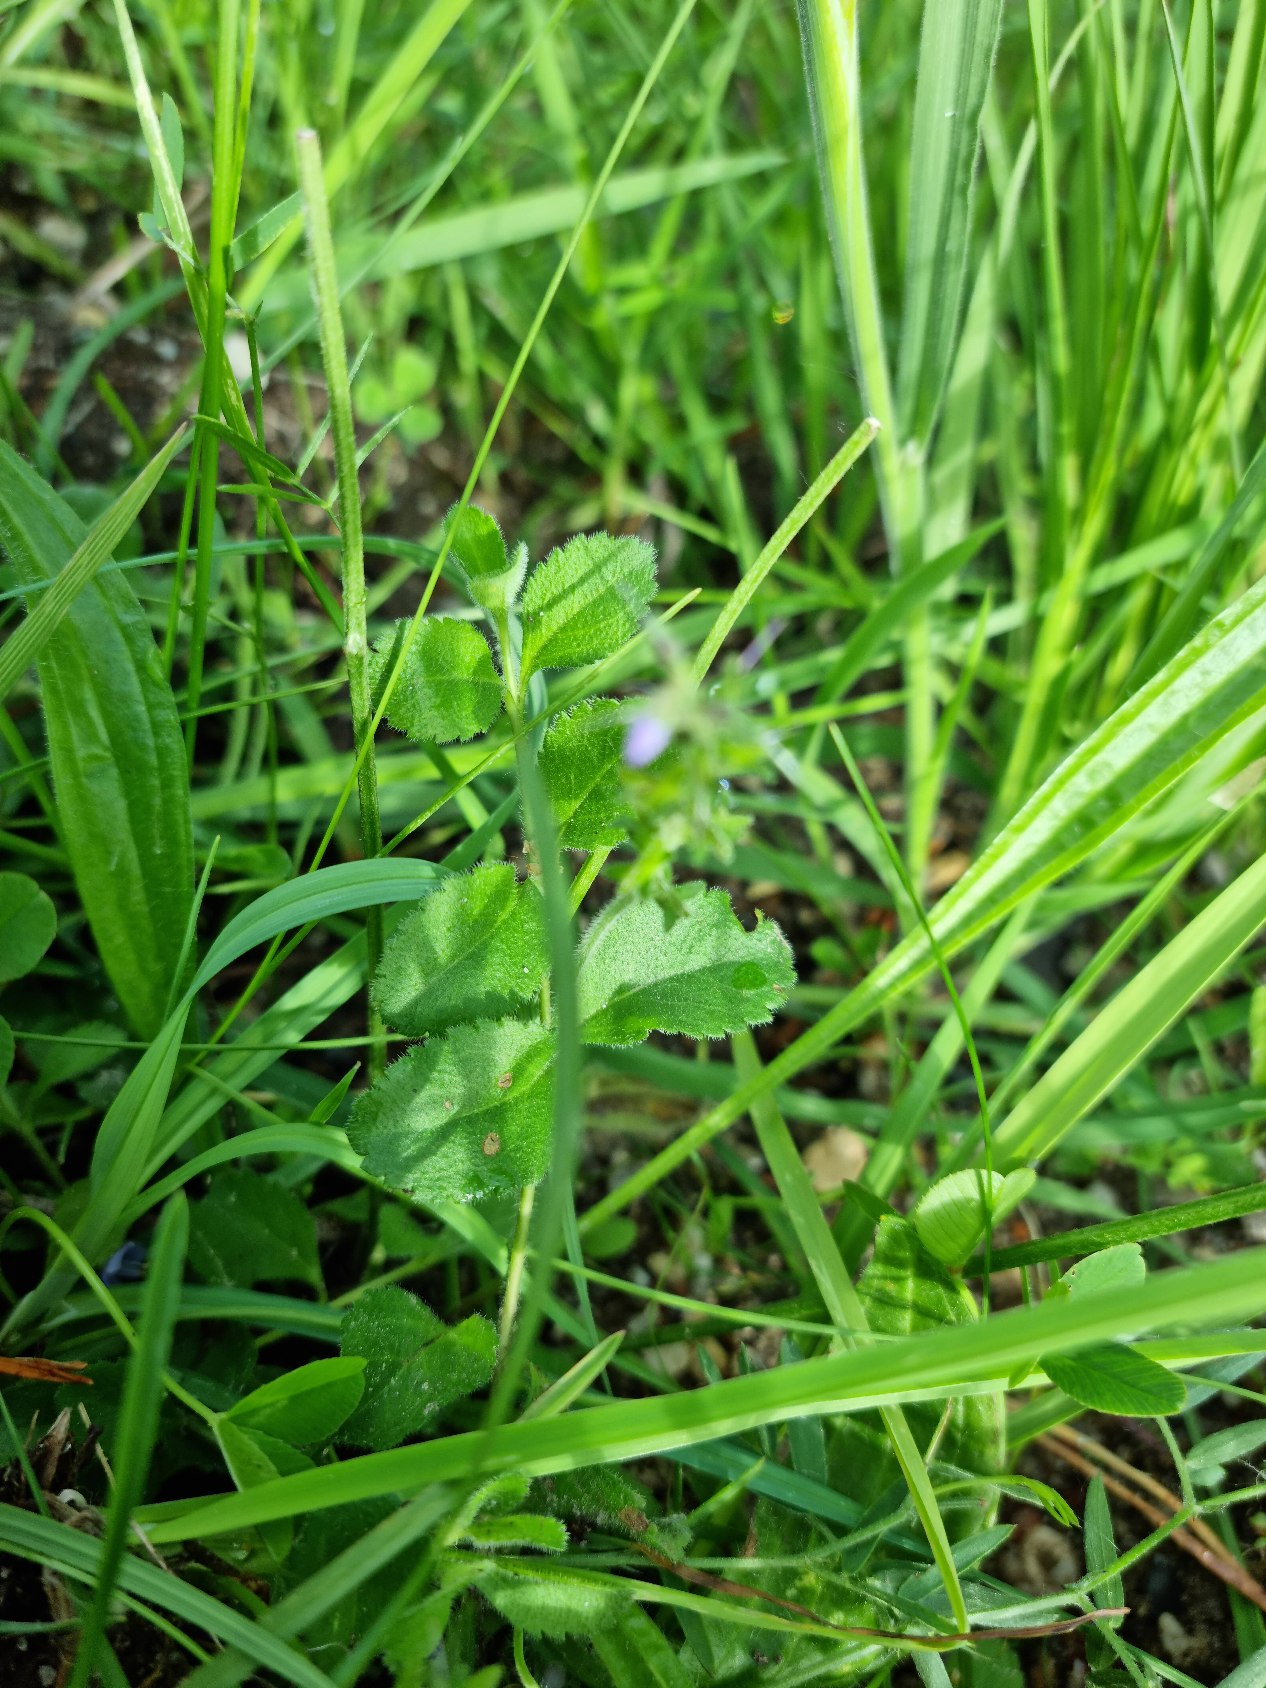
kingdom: Plantae
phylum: Tracheophyta
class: Magnoliopsida
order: Lamiales
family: Plantaginaceae
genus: Veronica
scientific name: Veronica officinalis
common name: Læge-ærenpris
